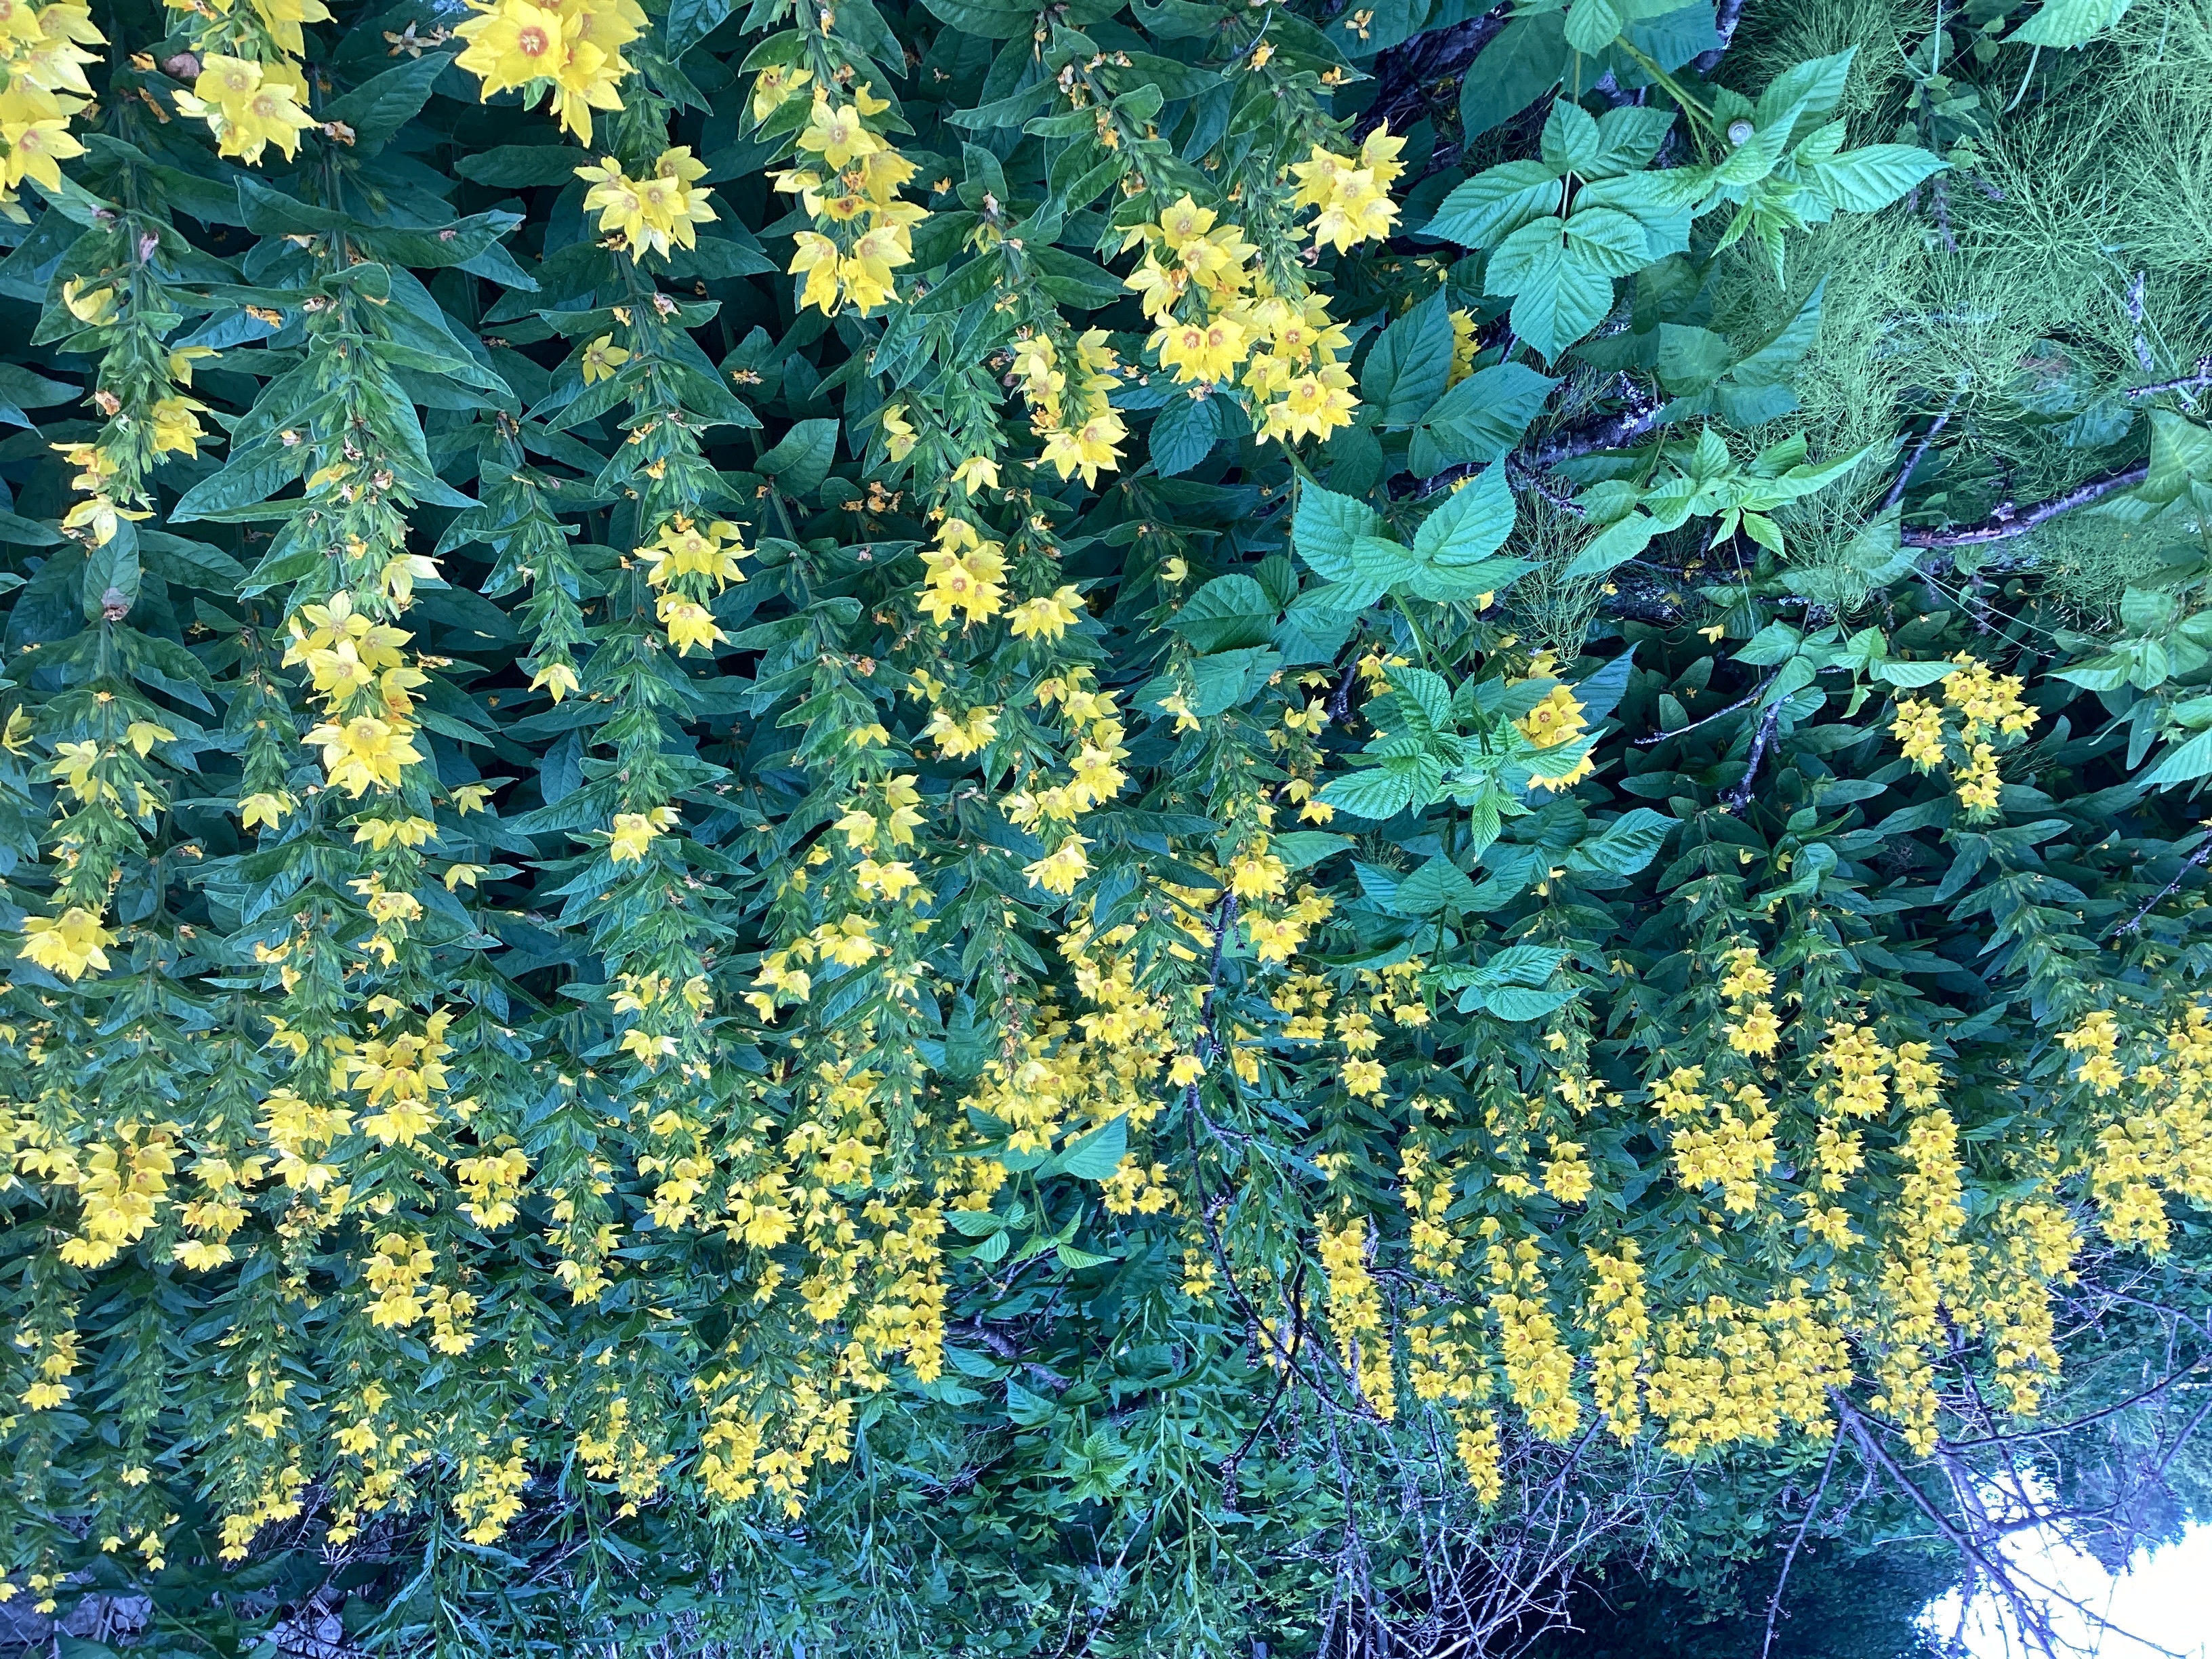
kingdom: Plantae
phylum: Tracheophyta
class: Magnoliopsida
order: Ericales
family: Primulaceae
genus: Lysimachia
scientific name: Lysimachia punctata
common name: fagerfredløs
